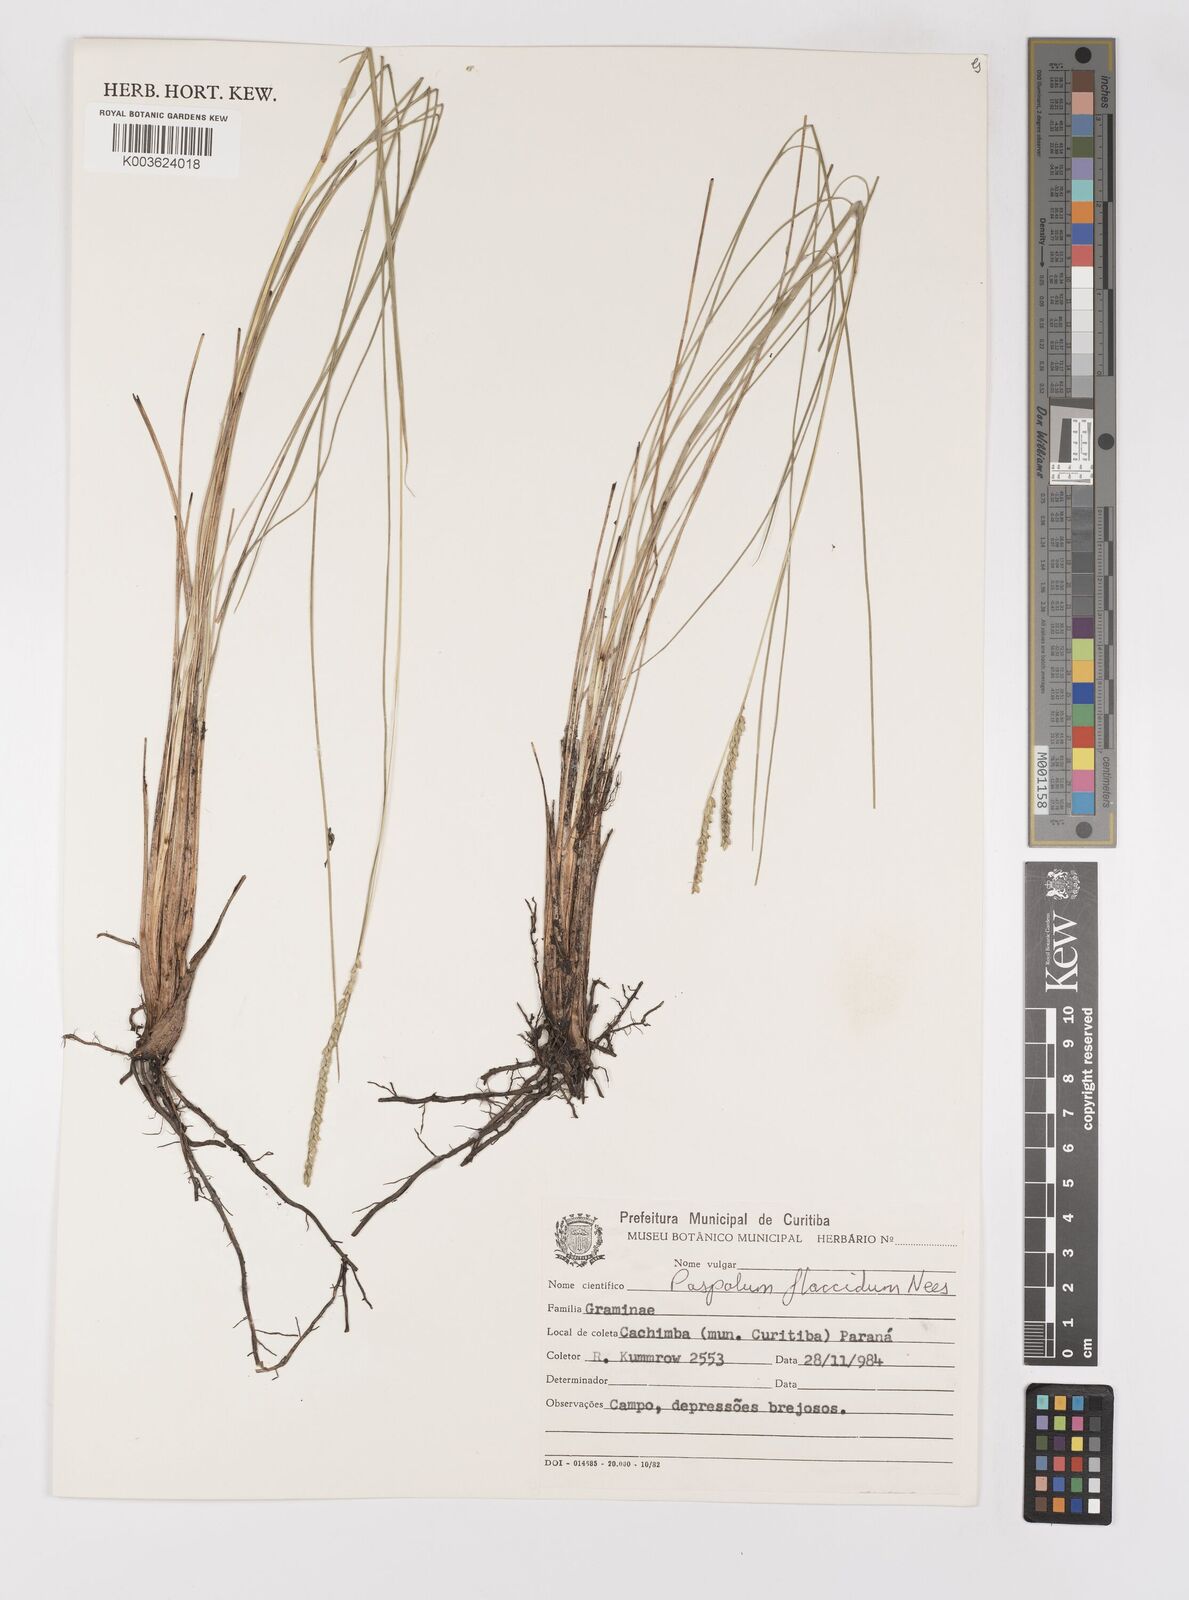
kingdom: Plantae
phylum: Tracheophyta
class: Liliopsida
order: Poales
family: Poaceae
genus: Paspalum
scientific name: Paspalum flaccidum
